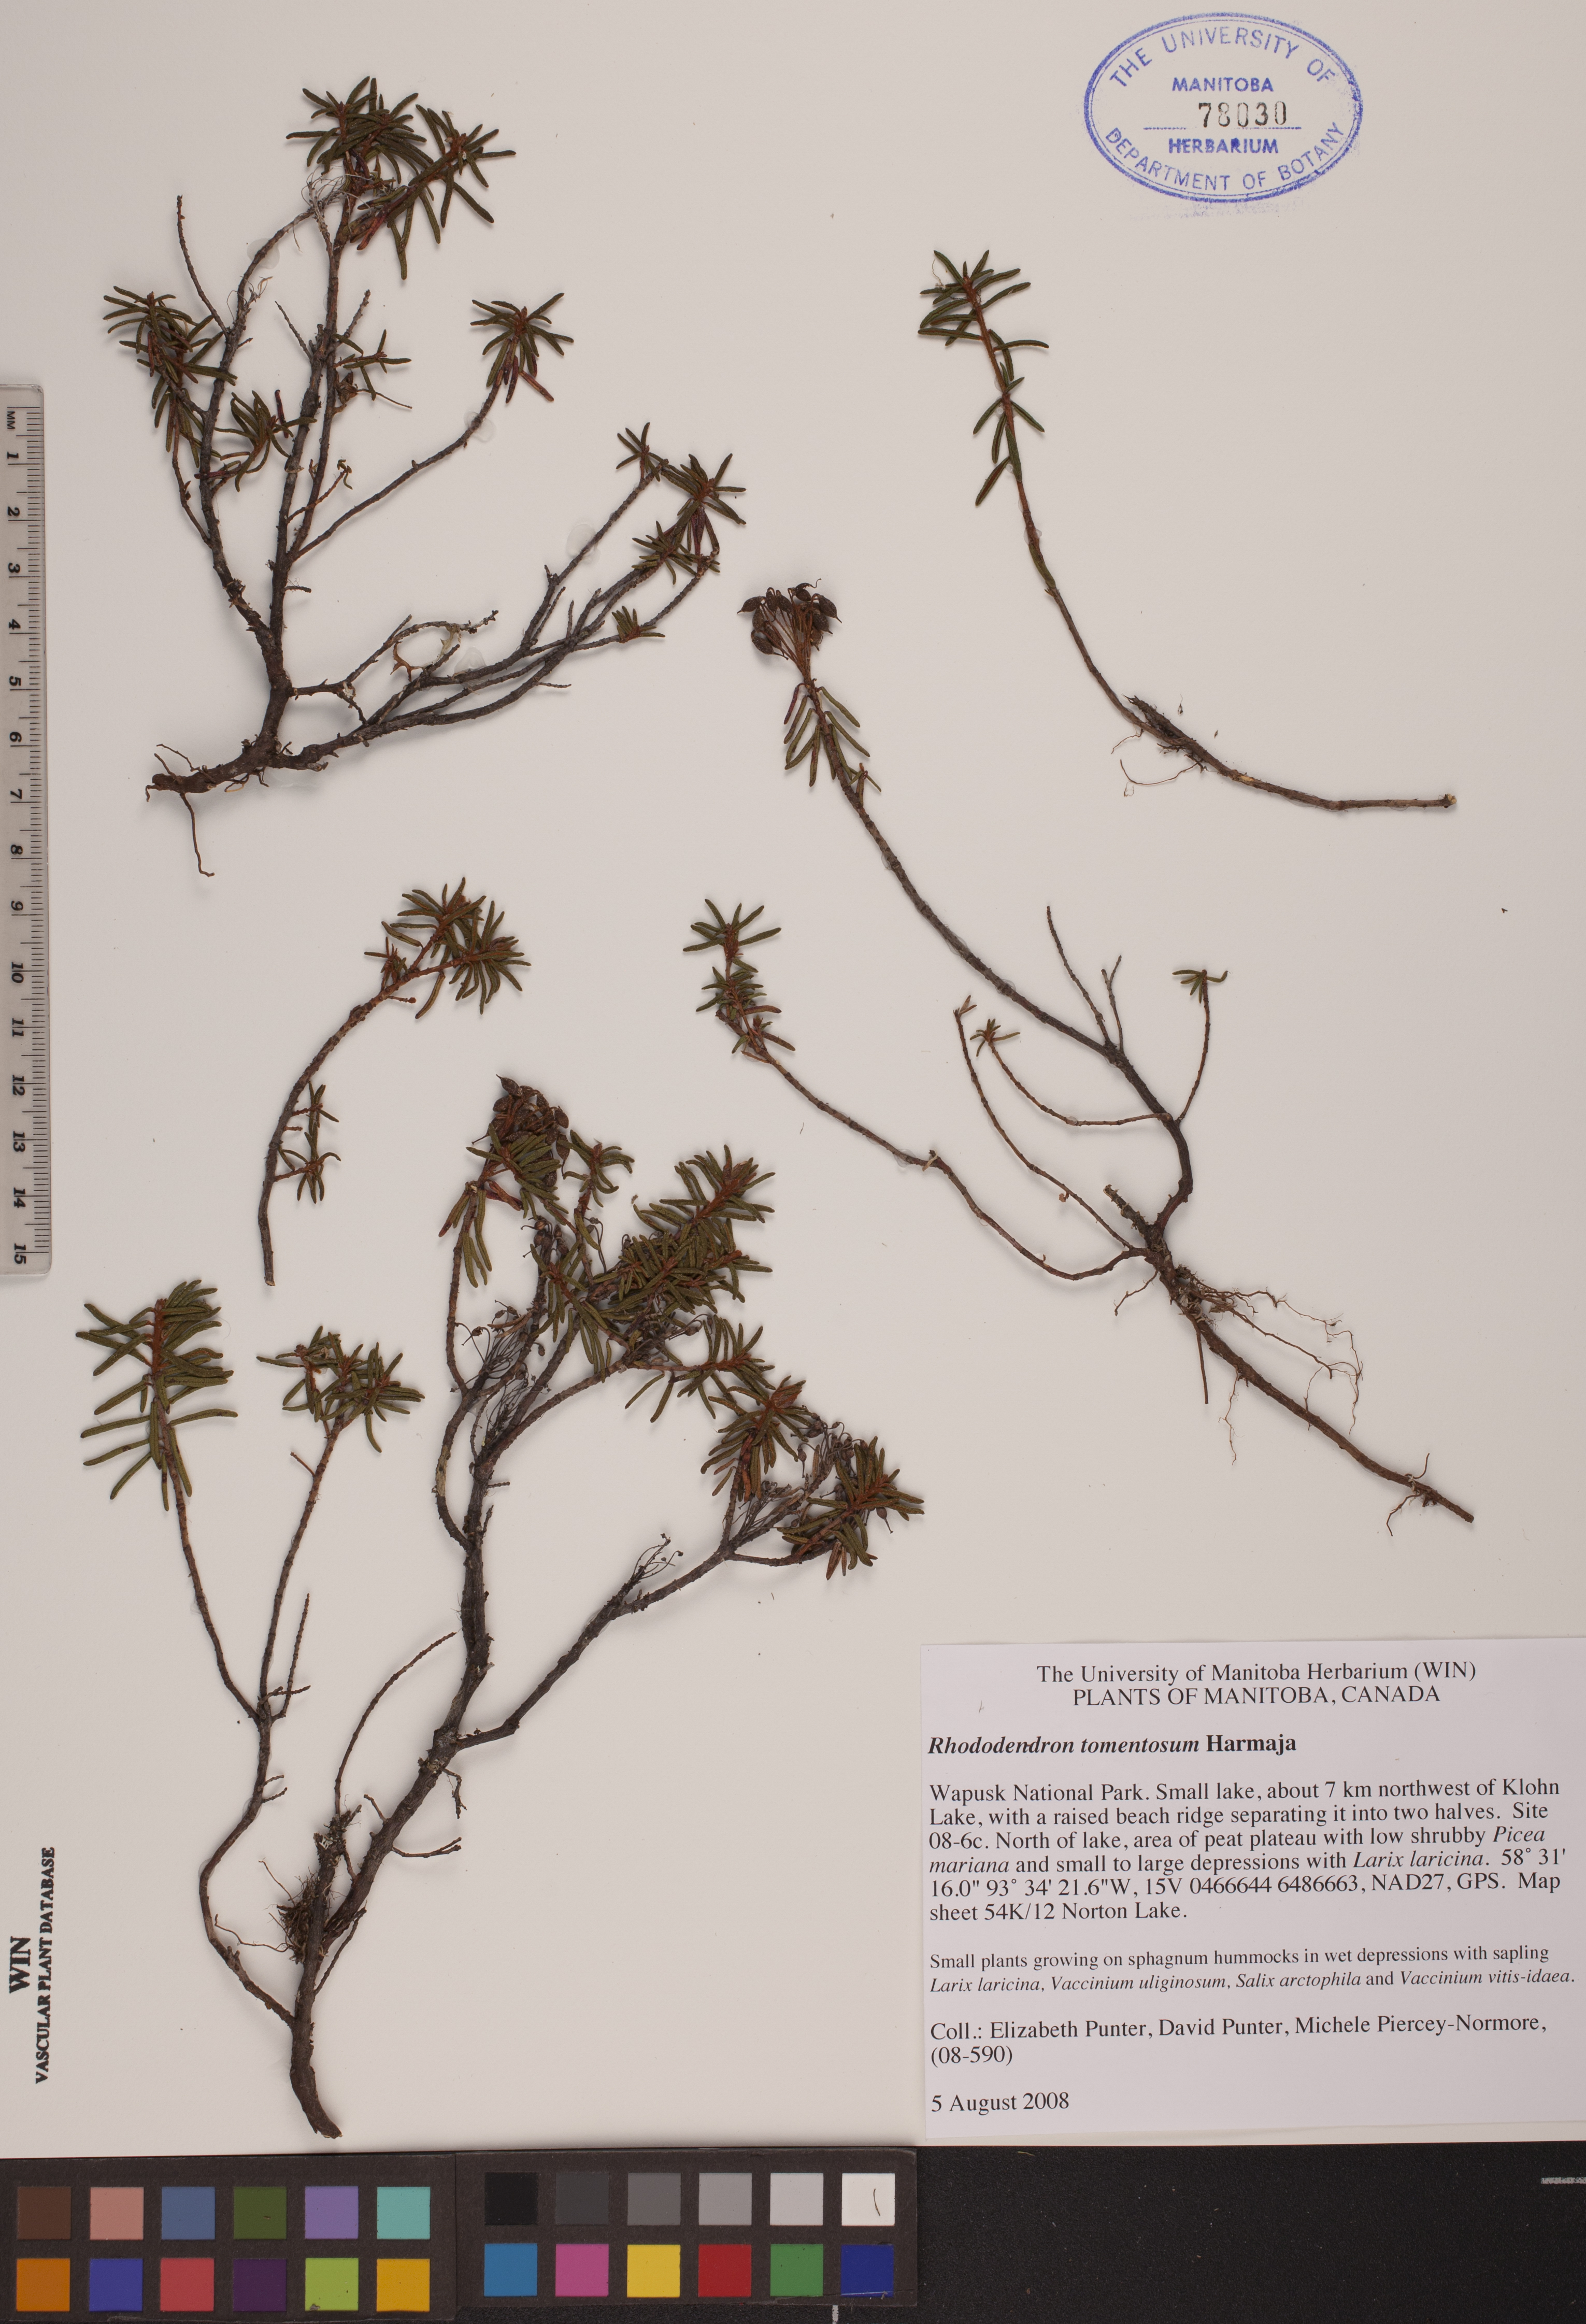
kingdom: Plantae
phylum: Tracheophyta
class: Magnoliopsida
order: Ericales
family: Ericaceae
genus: Rhododendron
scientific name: Rhododendron tomentosum
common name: Marsh labrador tea
